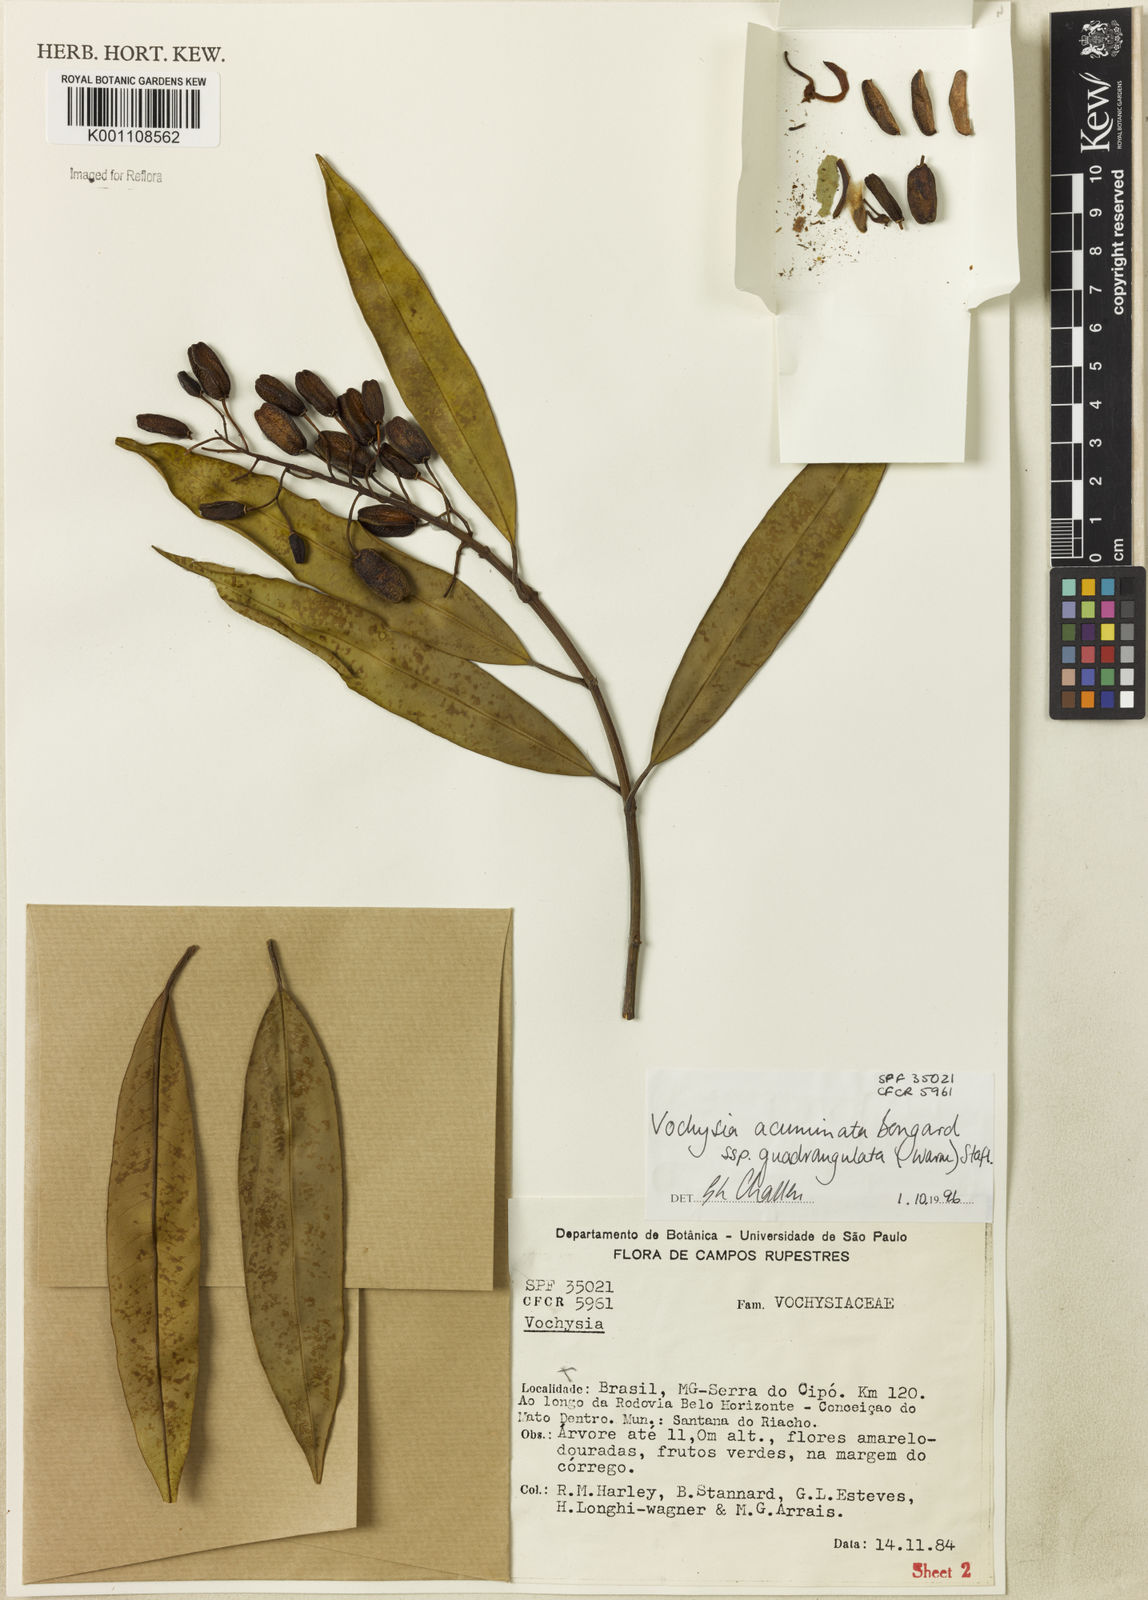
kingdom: Plantae
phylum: Tracheophyta
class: Magnoliopsida
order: Myrtales
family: Vochysiaceae
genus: Vochysia
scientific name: Vochysia acuminata
